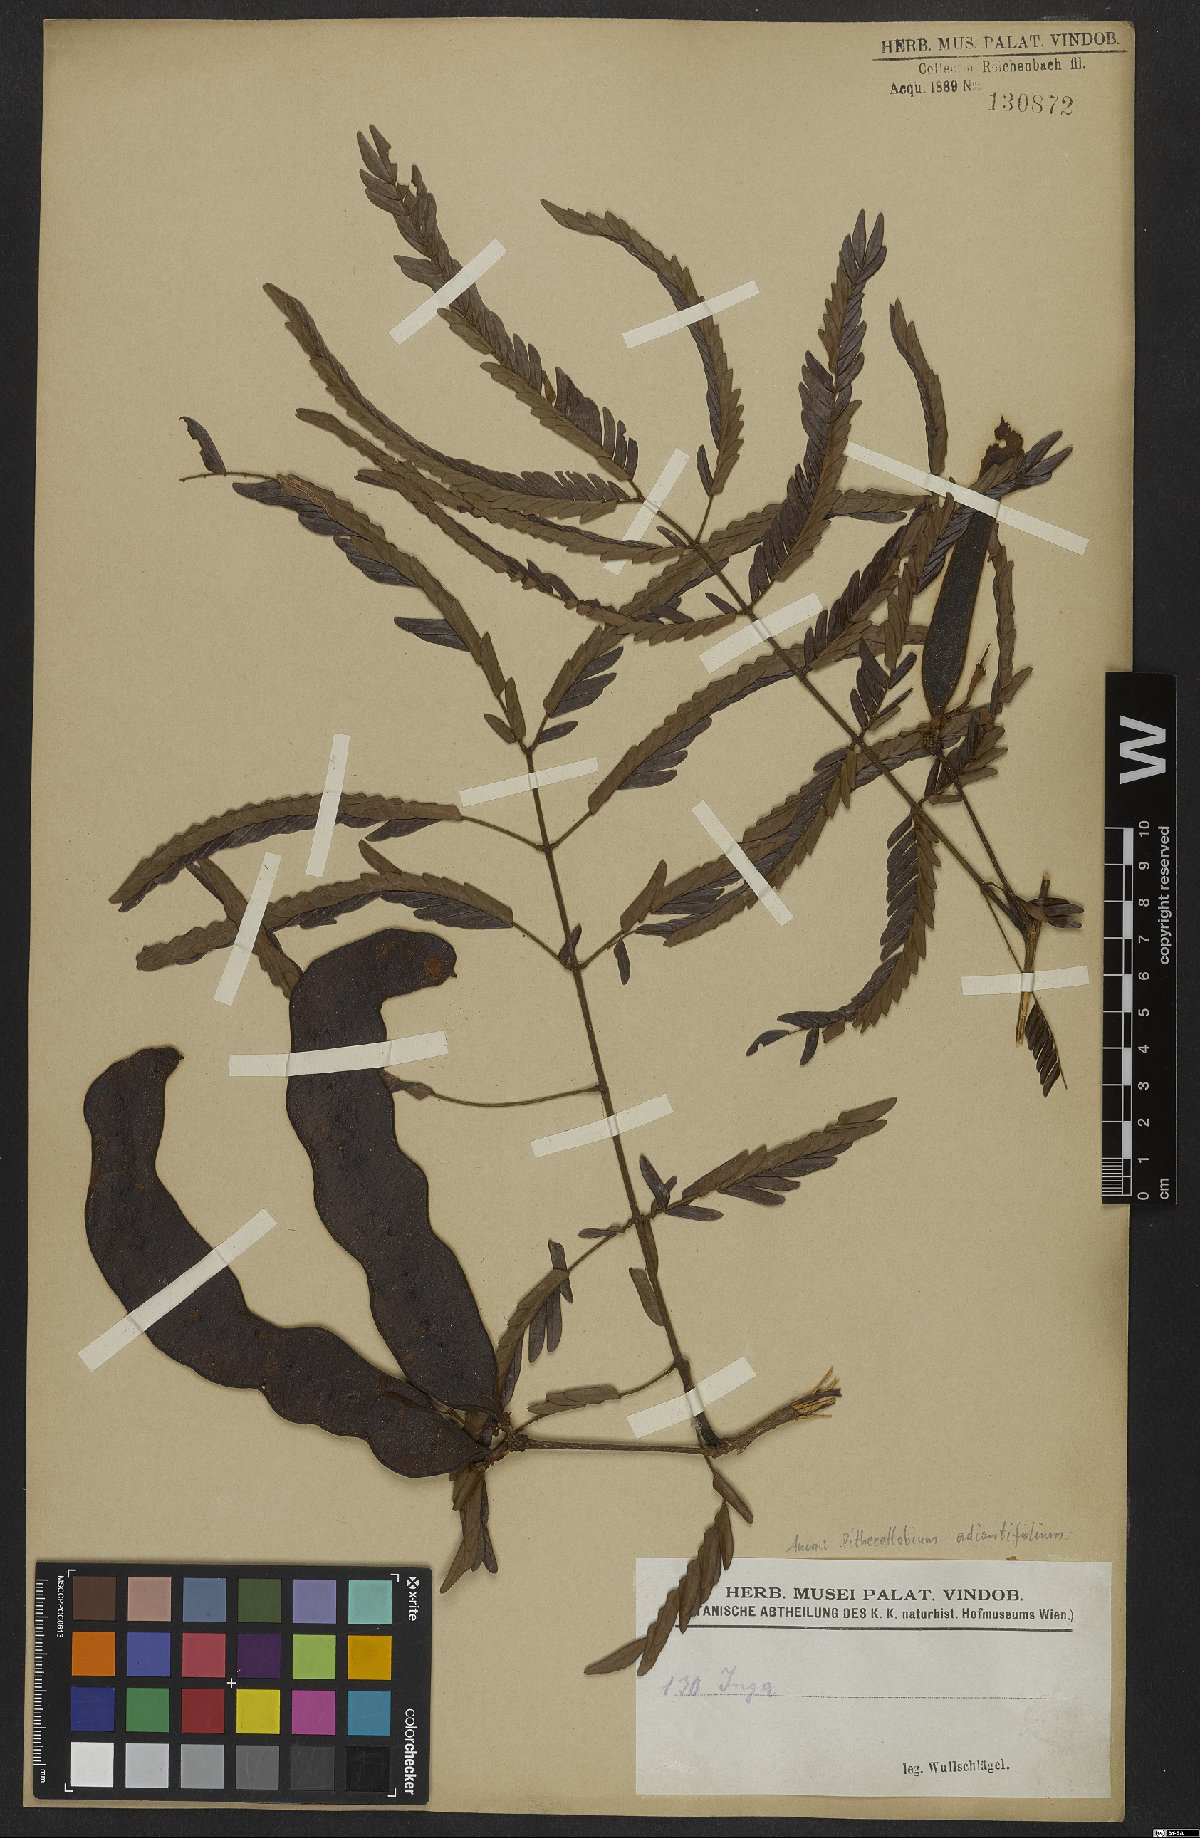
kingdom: Plantae
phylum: Tracheophyta
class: Magnoliopsida
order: Fabales
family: Fabaceae
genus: Macrosamanea
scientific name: Macrosamanea discolor
